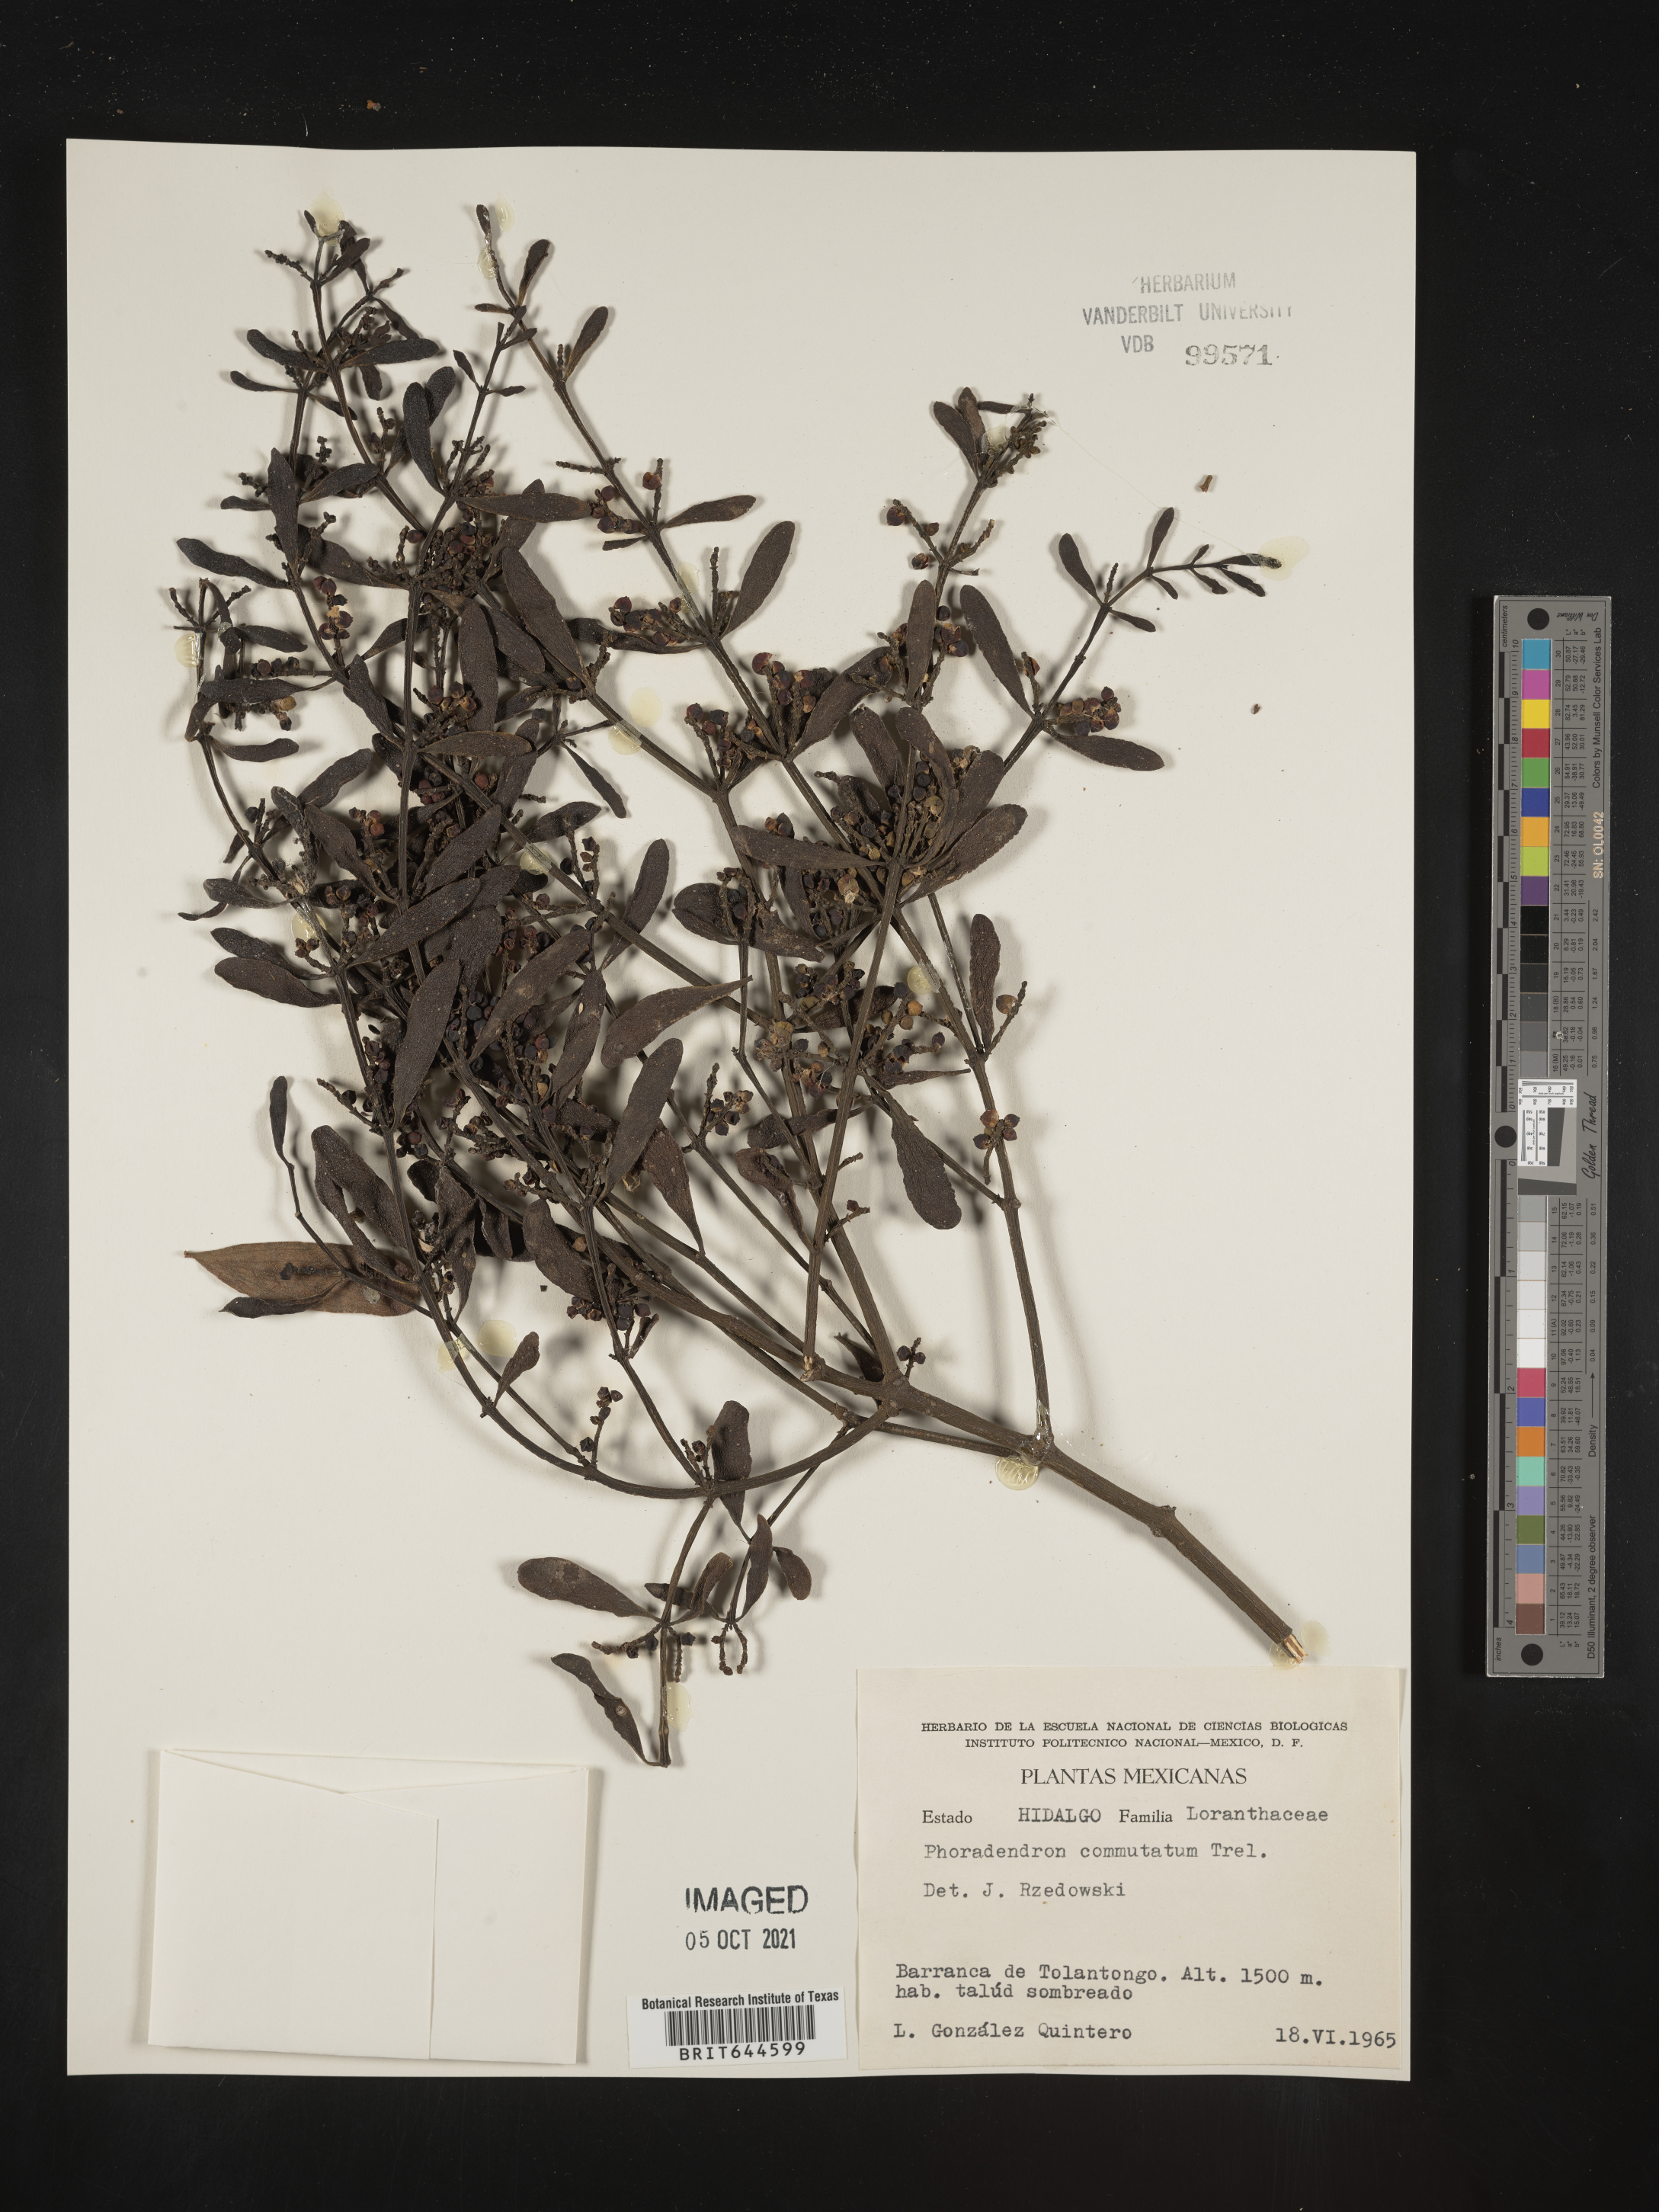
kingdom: Plantae
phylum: Tracheophyta
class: Magnoliopsida
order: Santalales
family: Viscaceae
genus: Phoradendron
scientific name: Phoradendron
